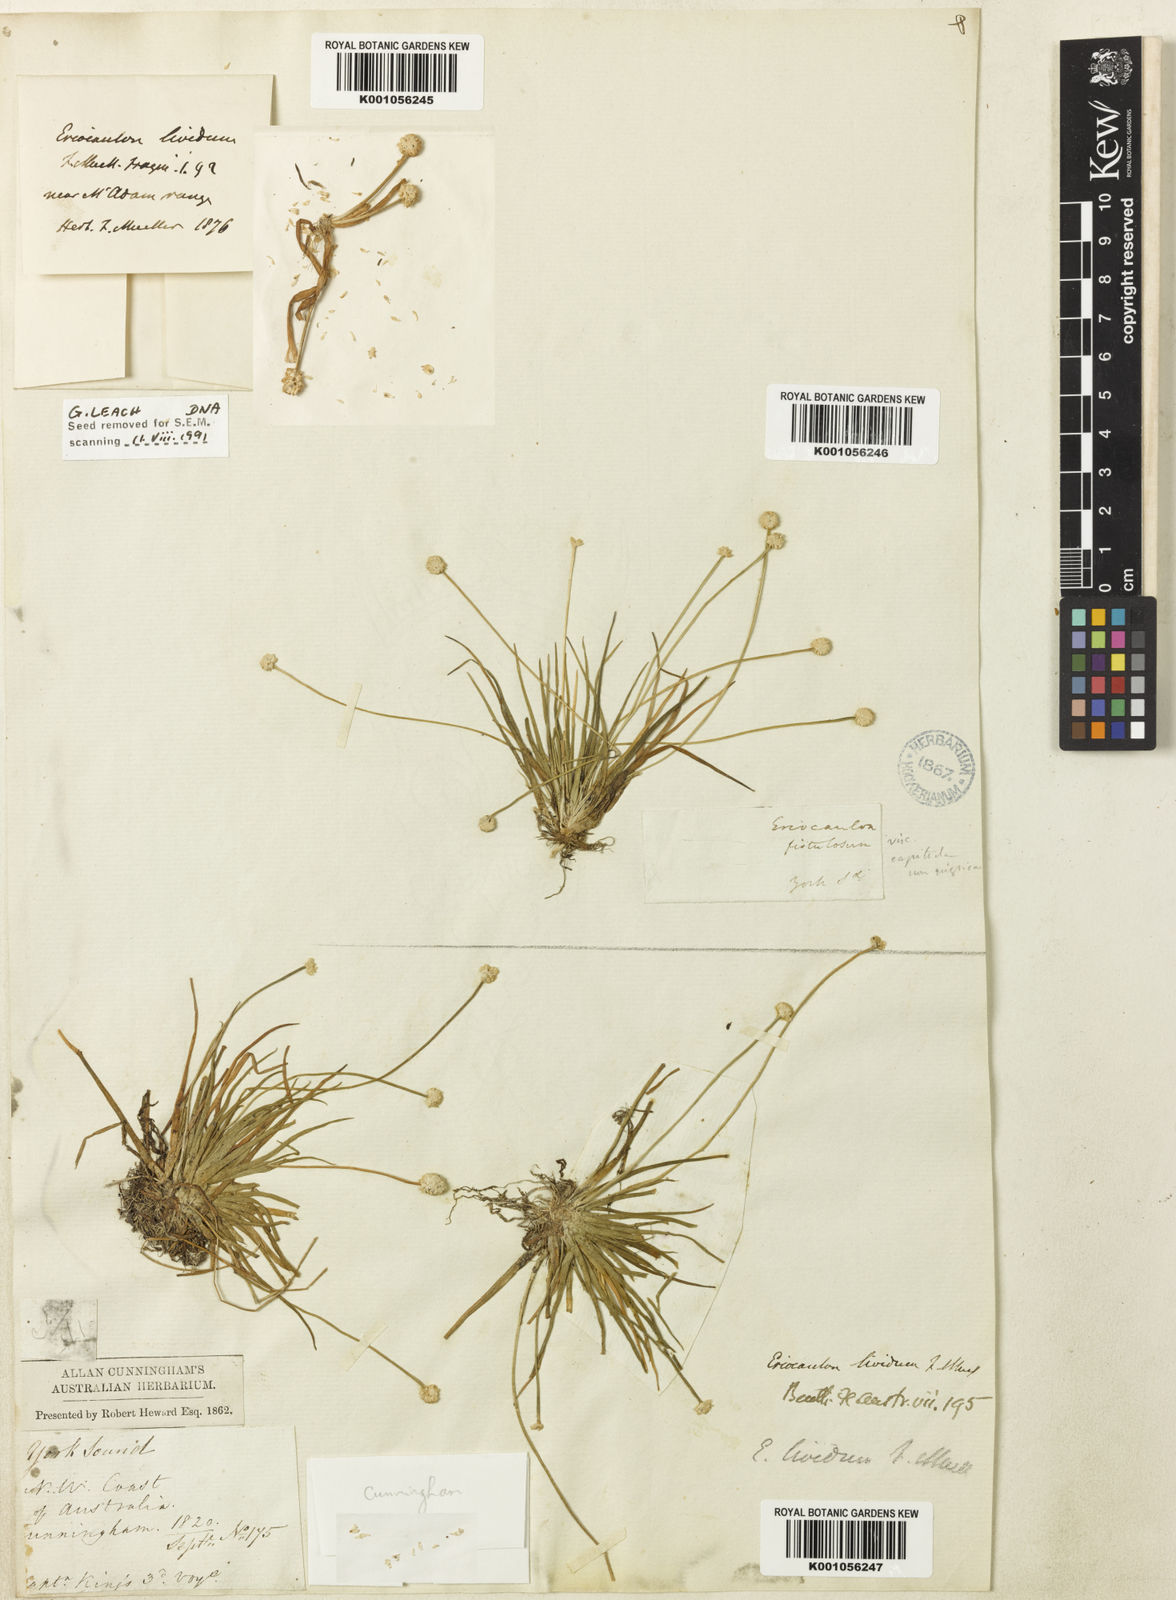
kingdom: Plantae
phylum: Tracheophyta
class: Liliopsida
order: Poales
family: Eriocaulaceae
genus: Eriocaulon
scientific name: Eriocaulon lividum
